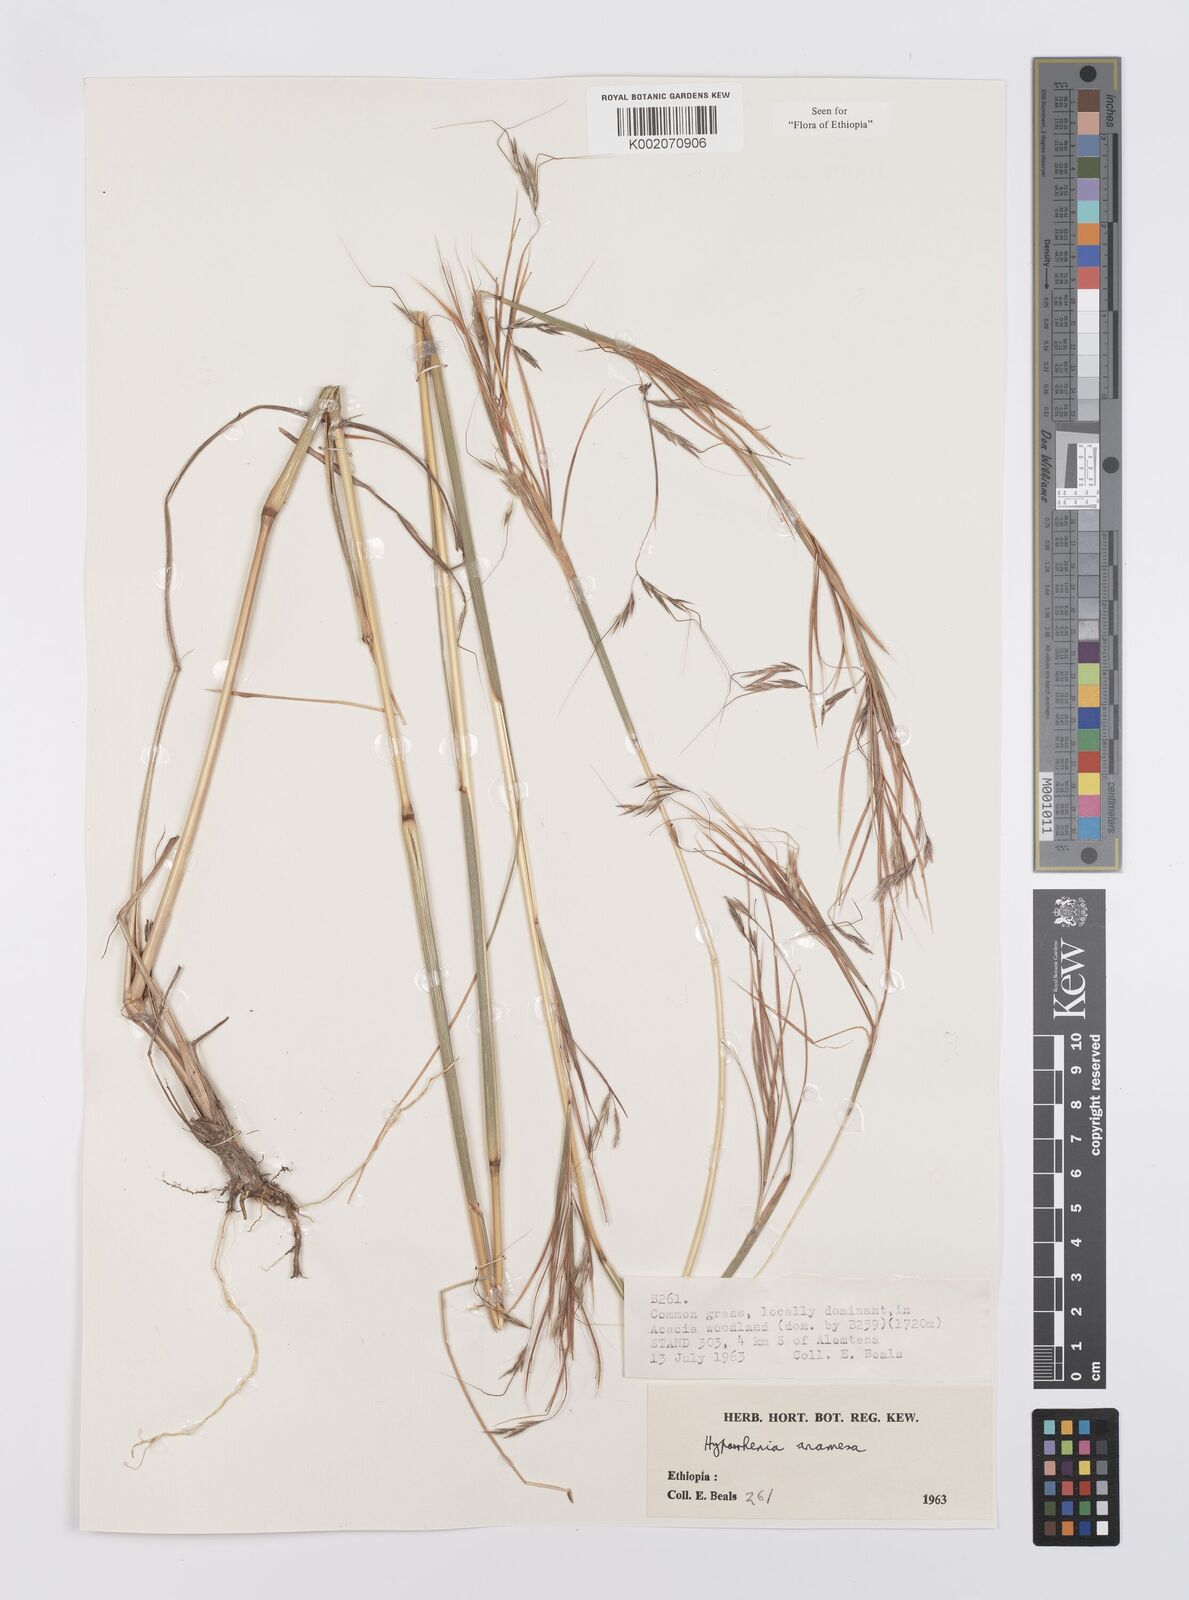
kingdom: Plantae
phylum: Tracheophyta
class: Liliopsida
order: Poales
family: Poaceae
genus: Hyparrhenia
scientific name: Hyparrhenia anamesa
